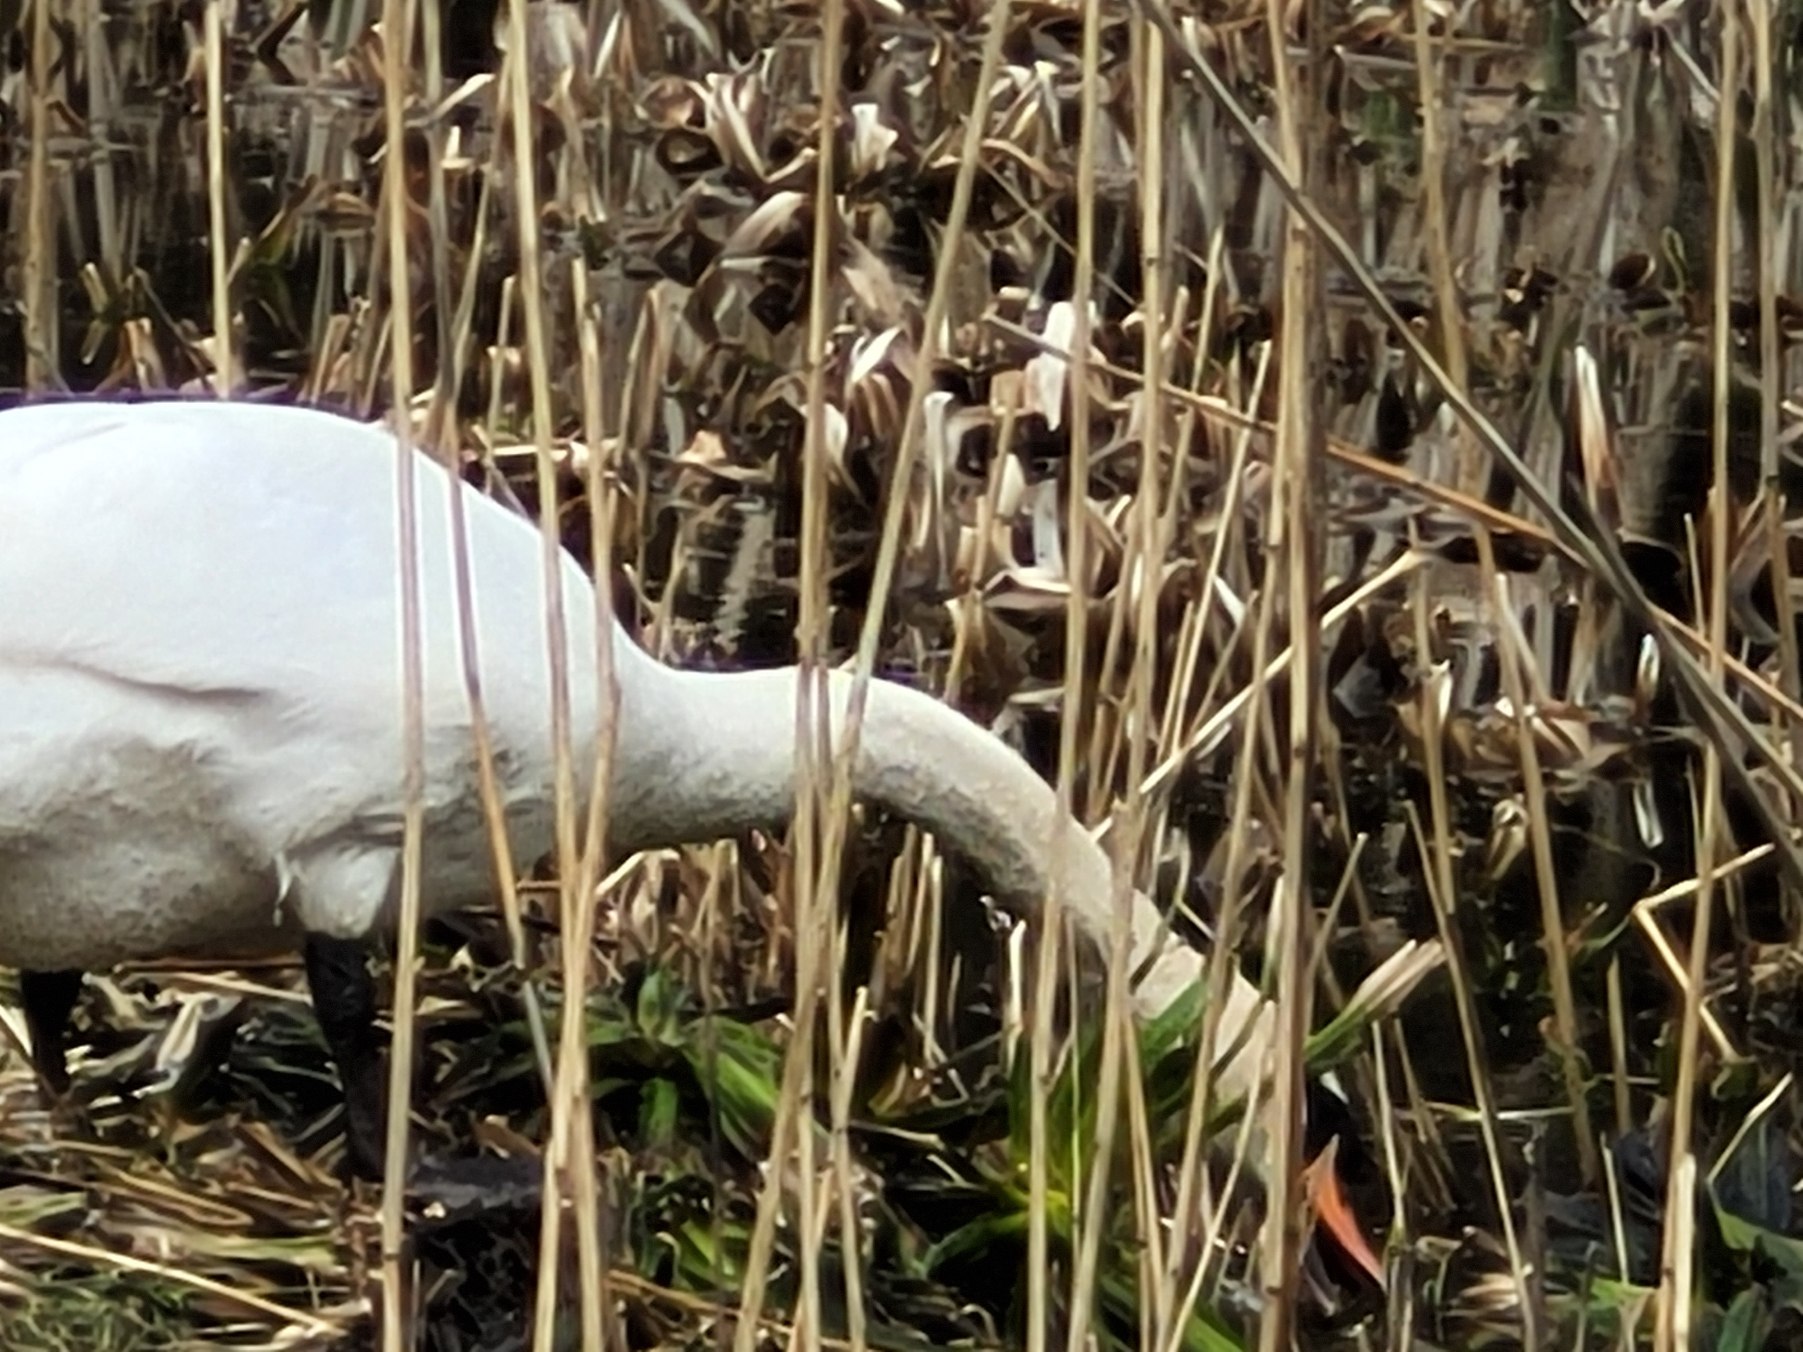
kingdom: Animalia
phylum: Chordata
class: Aves
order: Anseriformes
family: Anatidae
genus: Cygnus
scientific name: Cygnus olor
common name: Knopsvane
